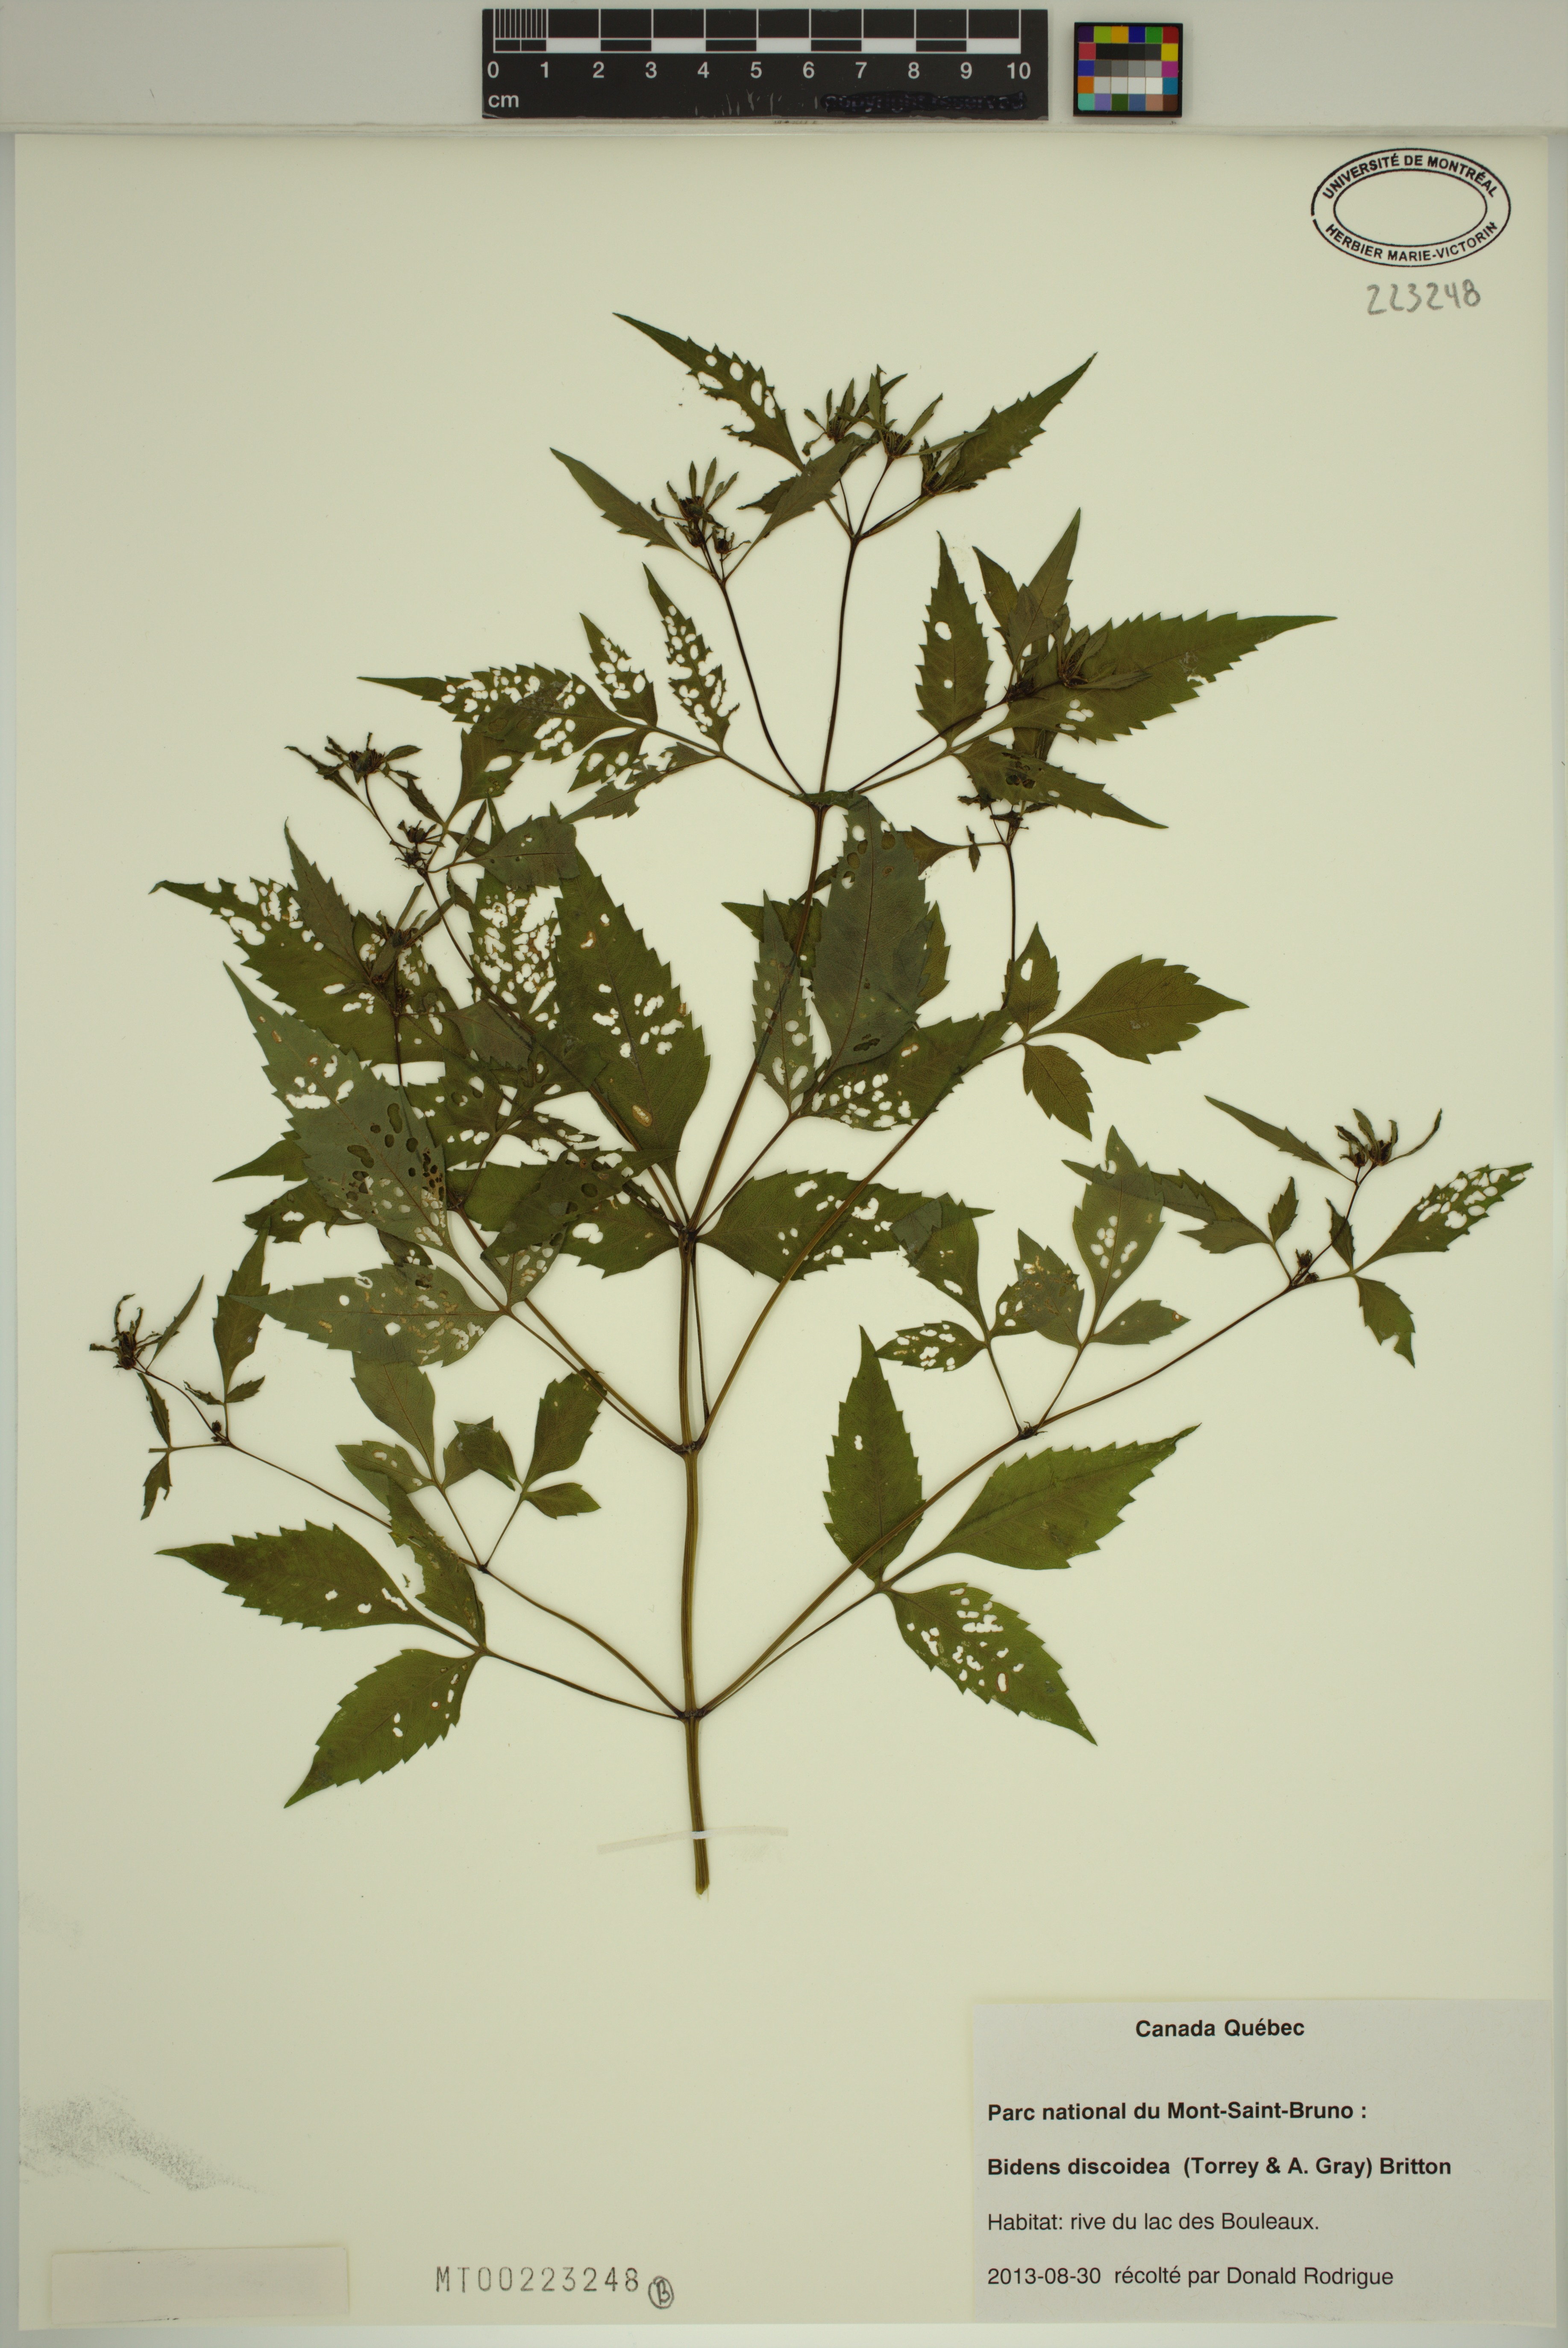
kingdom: Plantae
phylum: Tracheophyta
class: Magnoliopsida
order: Asterales
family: Asteraceae
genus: Bidens
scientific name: Bidens discoidea
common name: Discoide beggarticks
